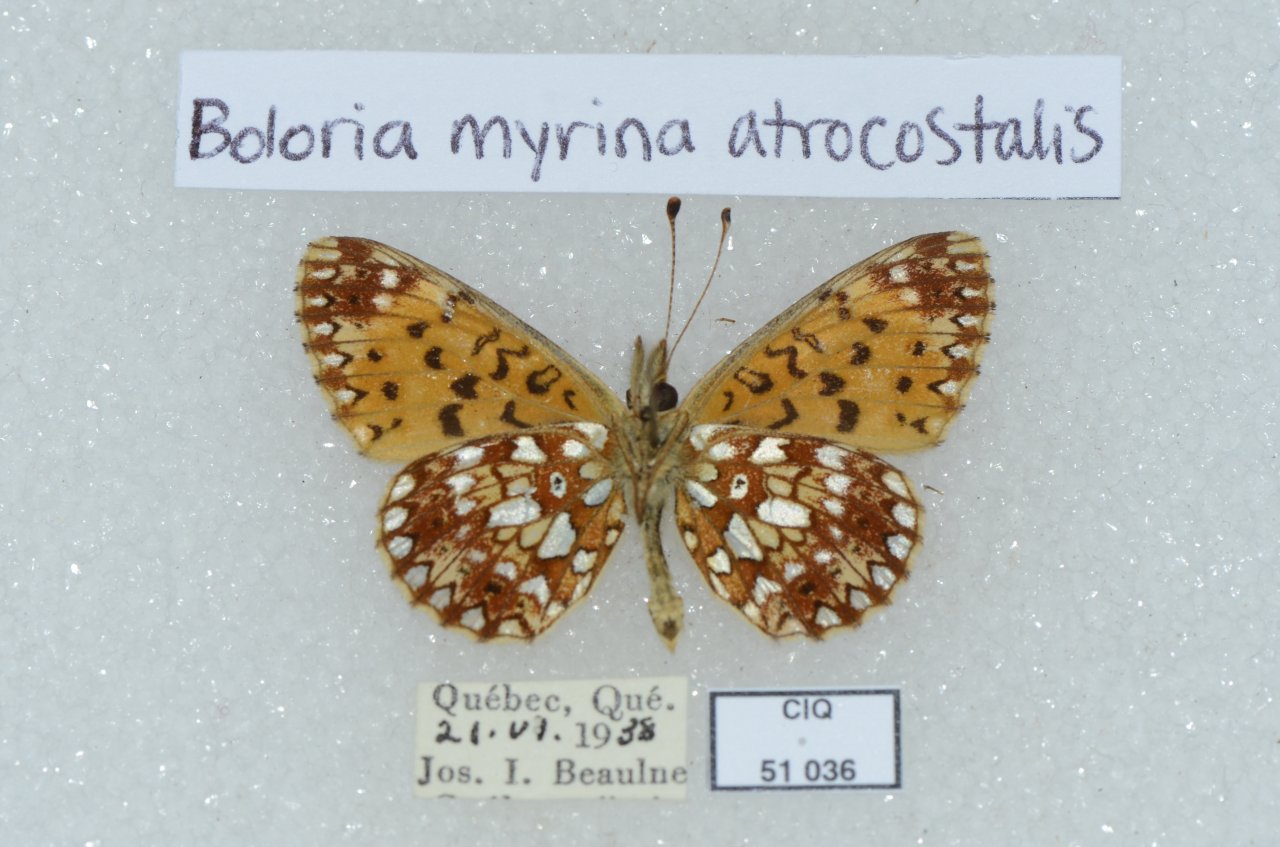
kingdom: Animalia
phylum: Arthropoda
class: Insecta
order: Lepidoptera
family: Nymphalidae
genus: Boloria
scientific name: Boloria selene
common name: Silver-bordered Fritillary
